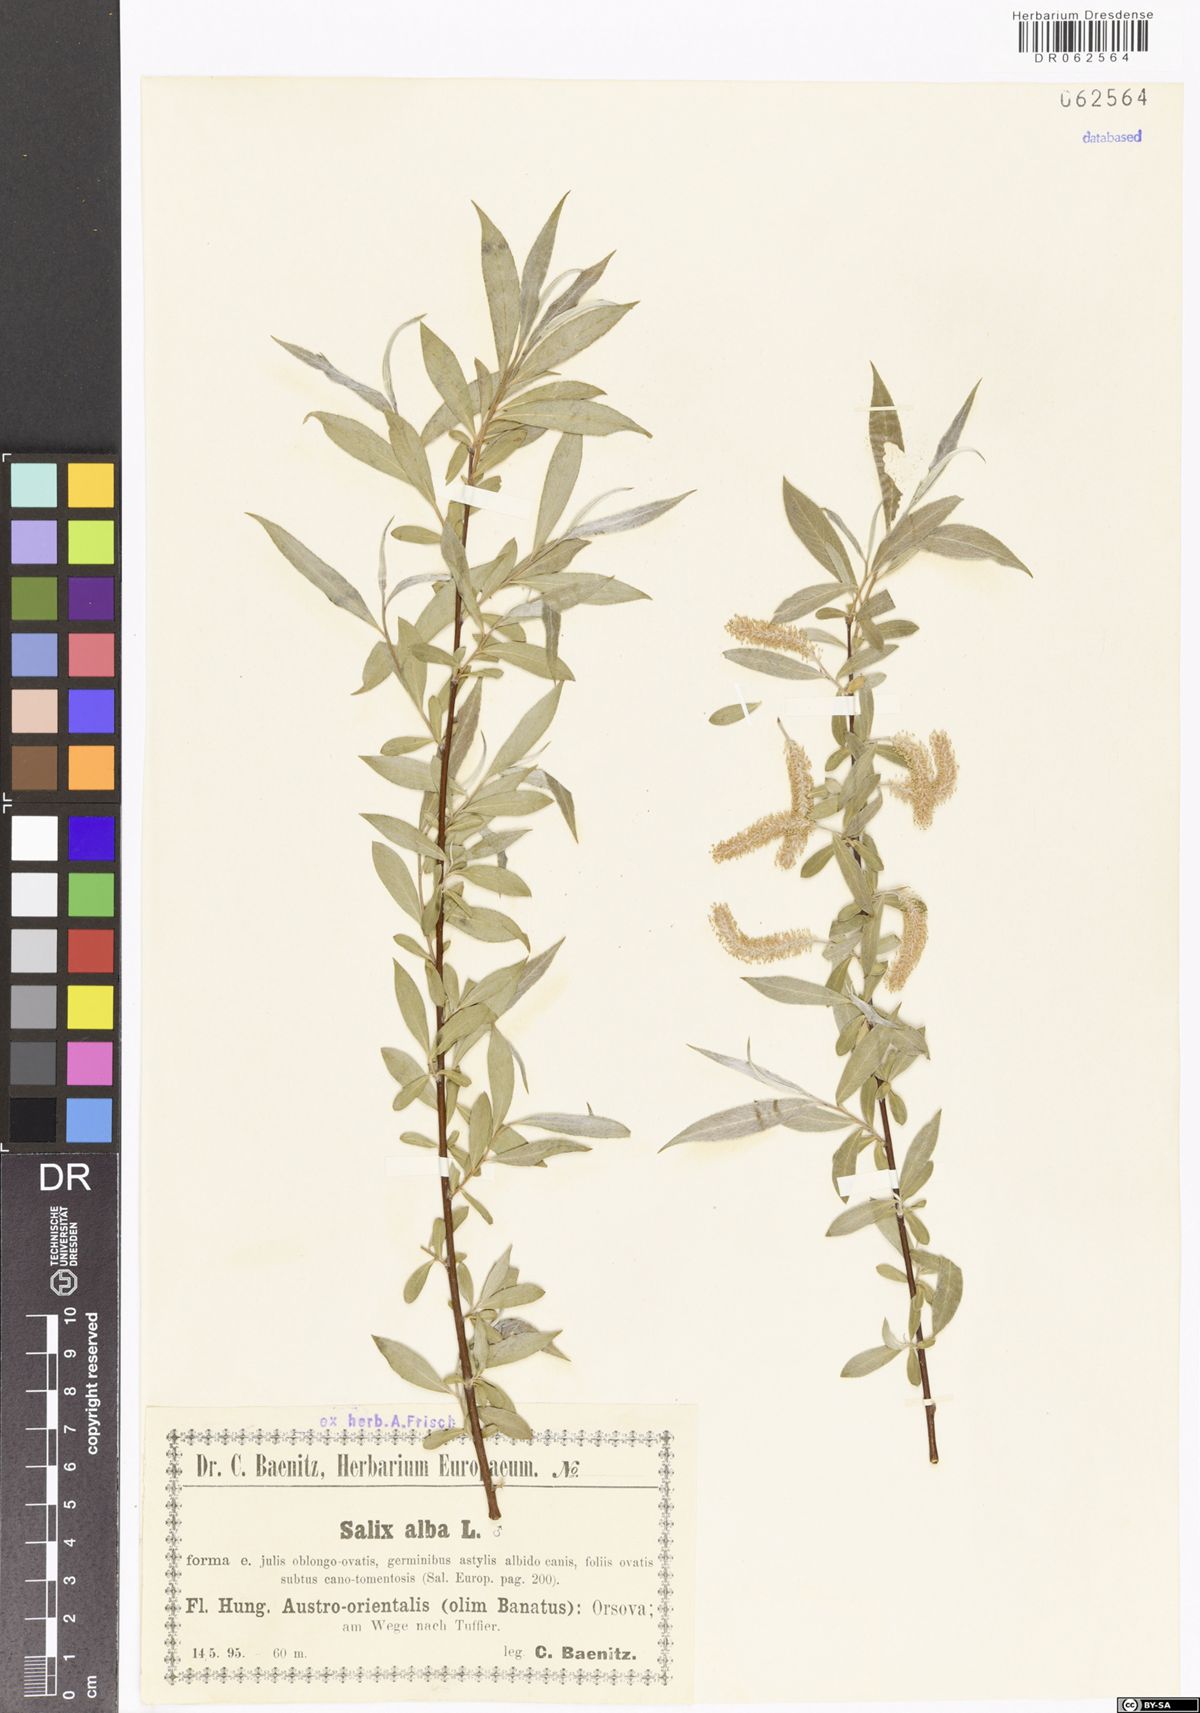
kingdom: Plantae
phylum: Tracheophyta
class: Magnoliopsida
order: Malpighiales
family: Salicaceae
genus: Salix
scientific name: Salix alba
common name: White willow
